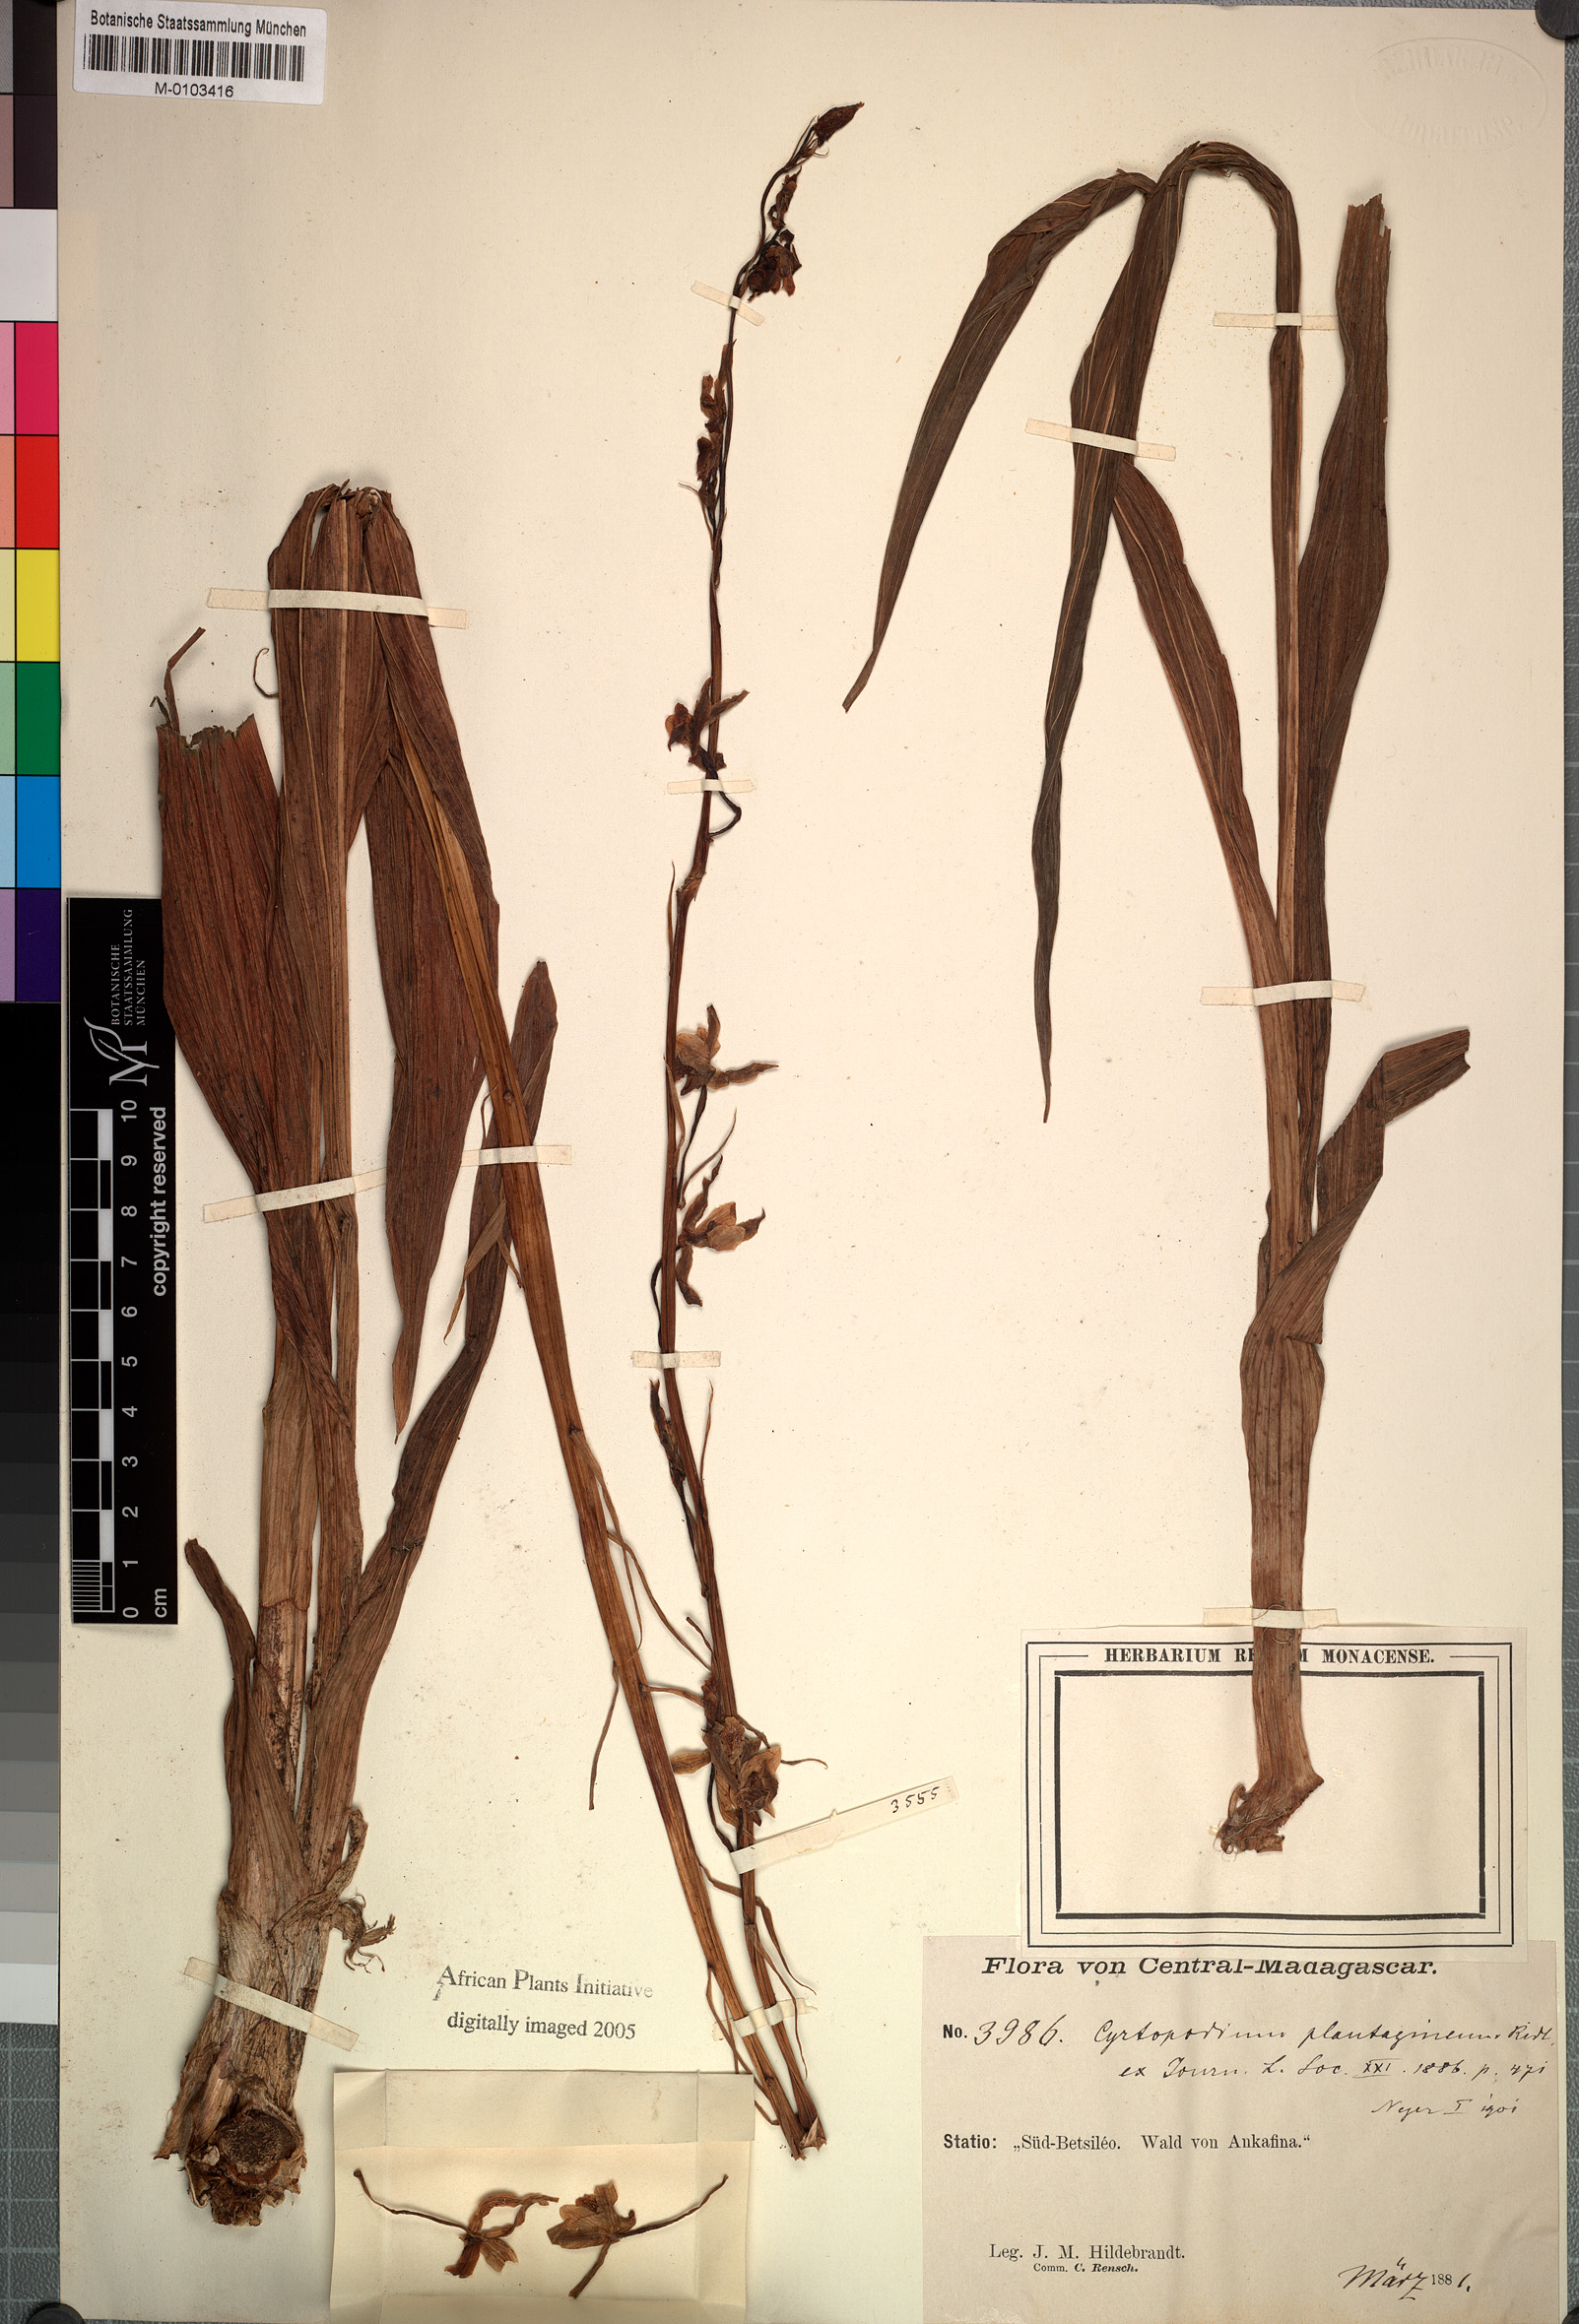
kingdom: Plantae
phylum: Tracheophyta
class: Liliopsida
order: Asparagales
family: Orchidaceae
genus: Cyrtopodium
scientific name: Cyrtopodium
